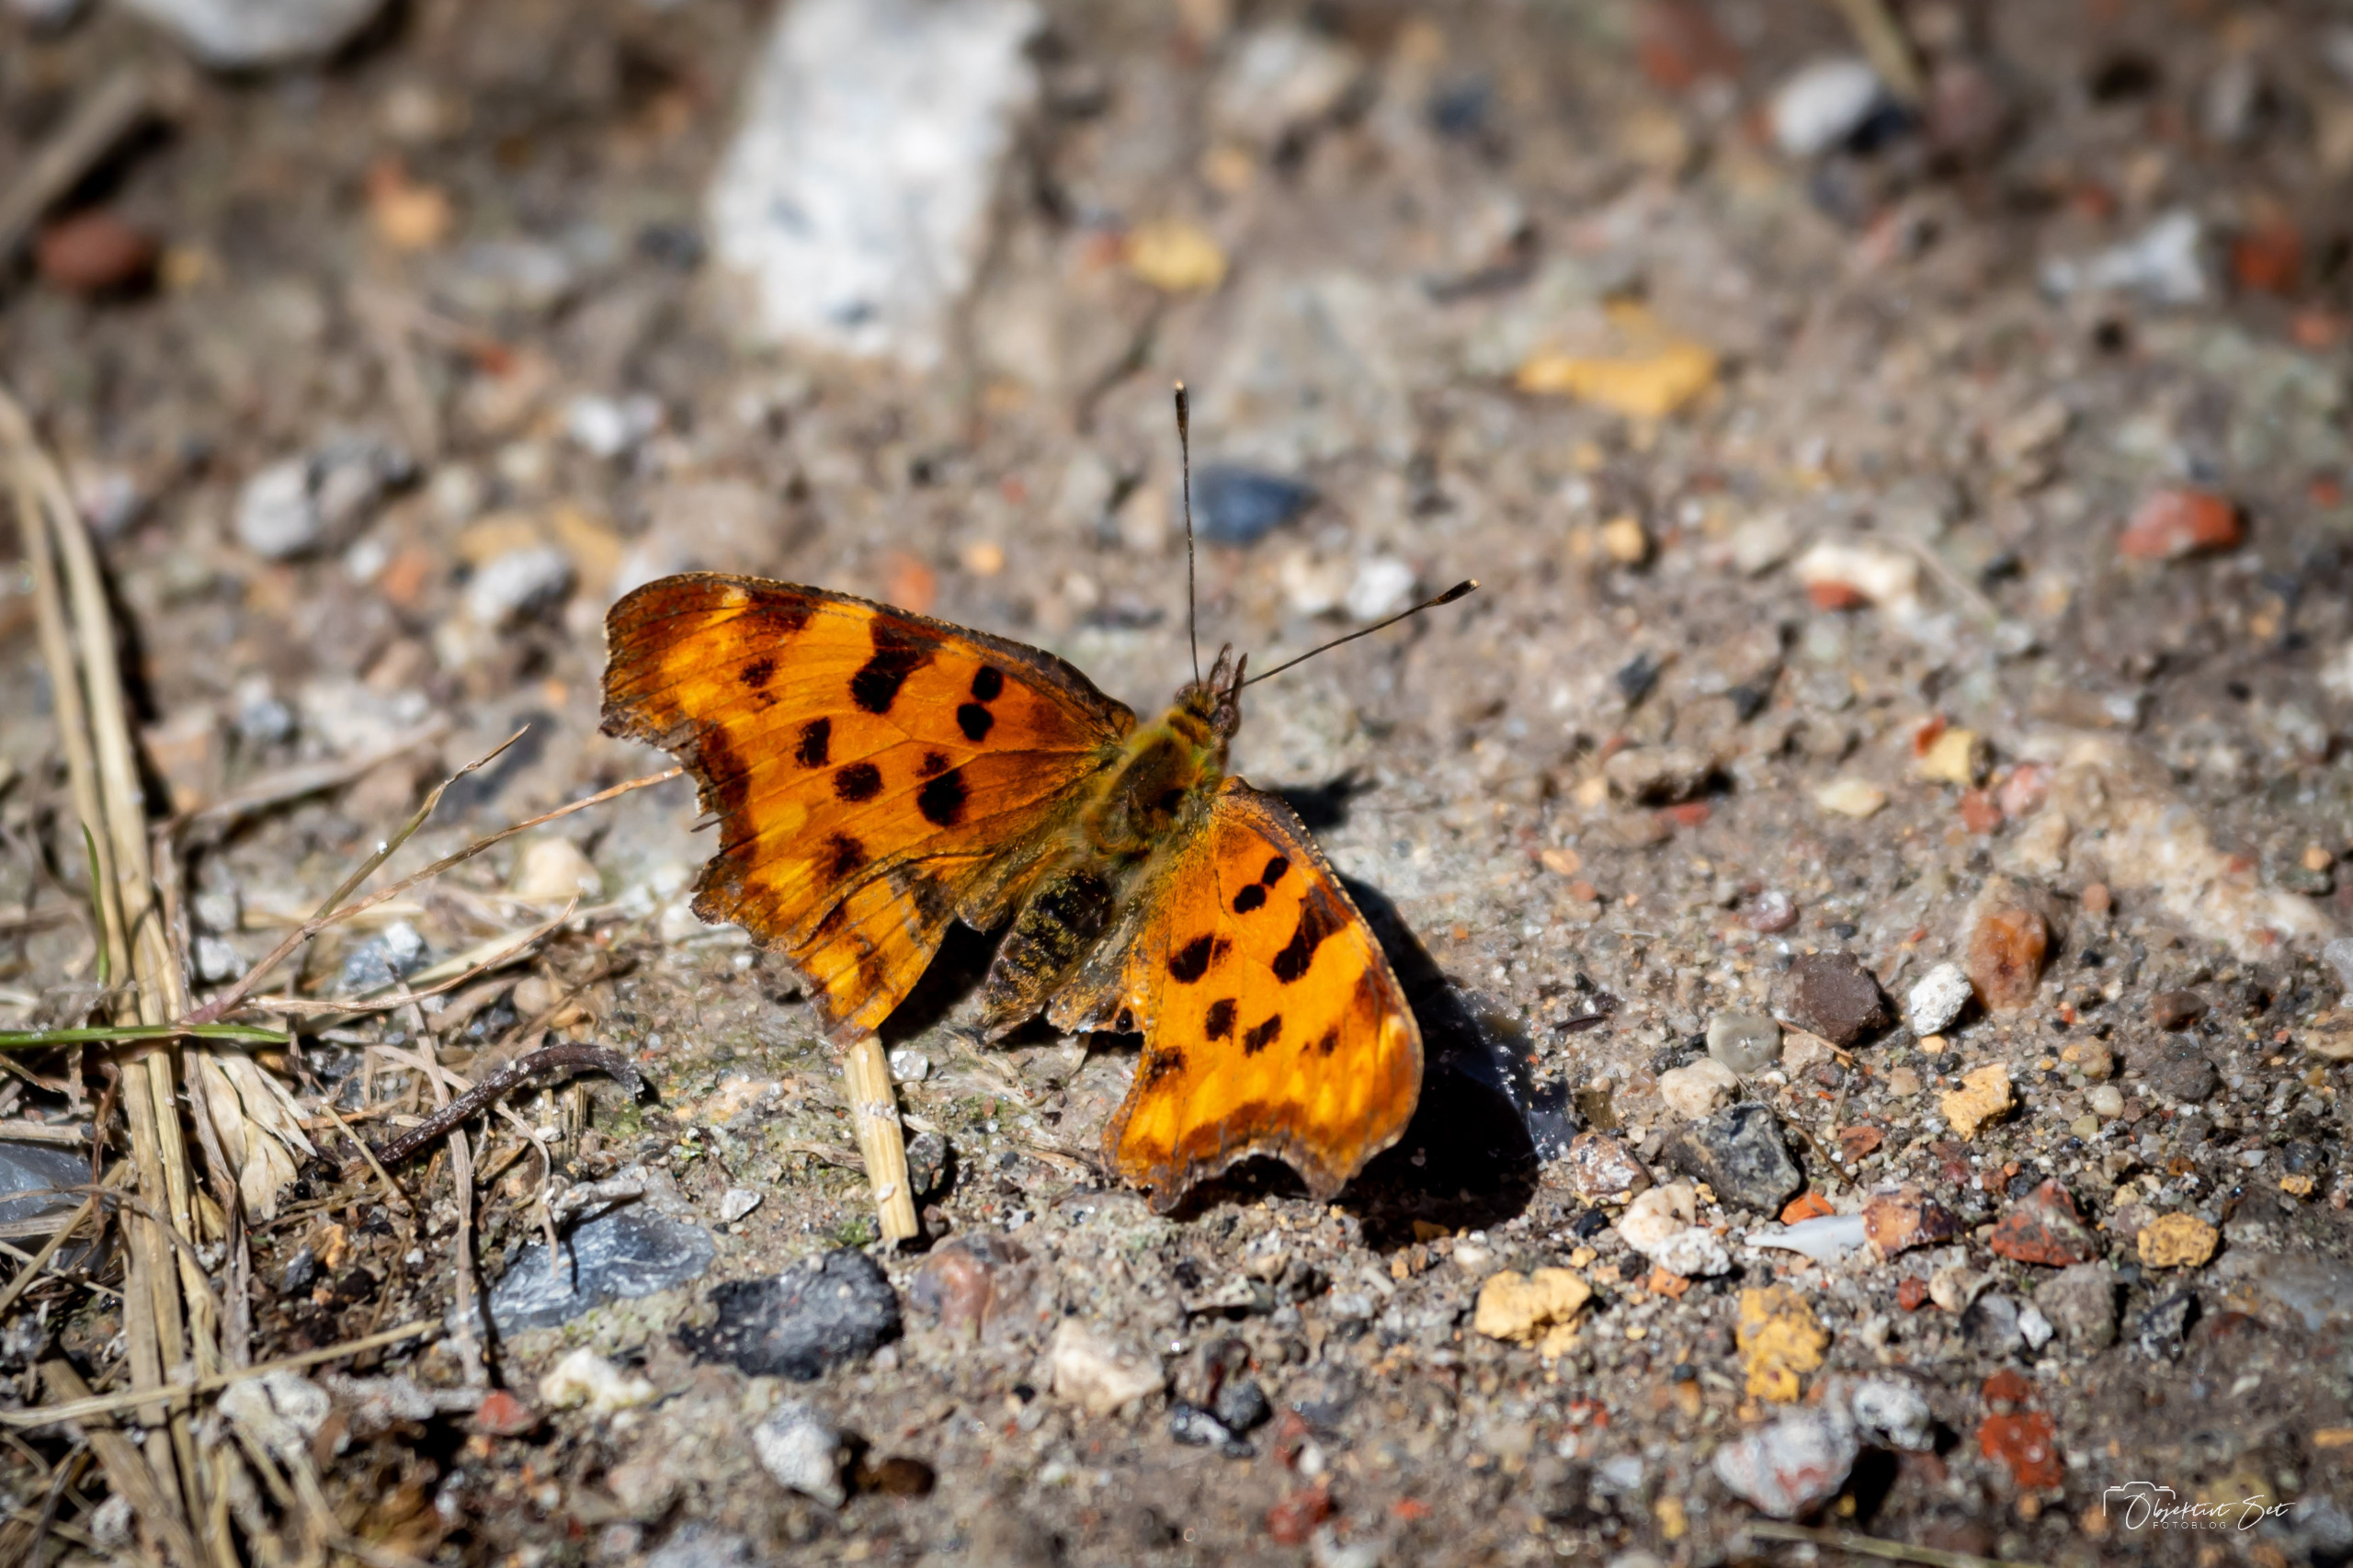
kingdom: Animalia
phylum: Arthropoda
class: Insecta
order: Lepidoptera
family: Nymphalidae
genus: Polygonia
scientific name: Polygonia c-album
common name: Det hvide C
